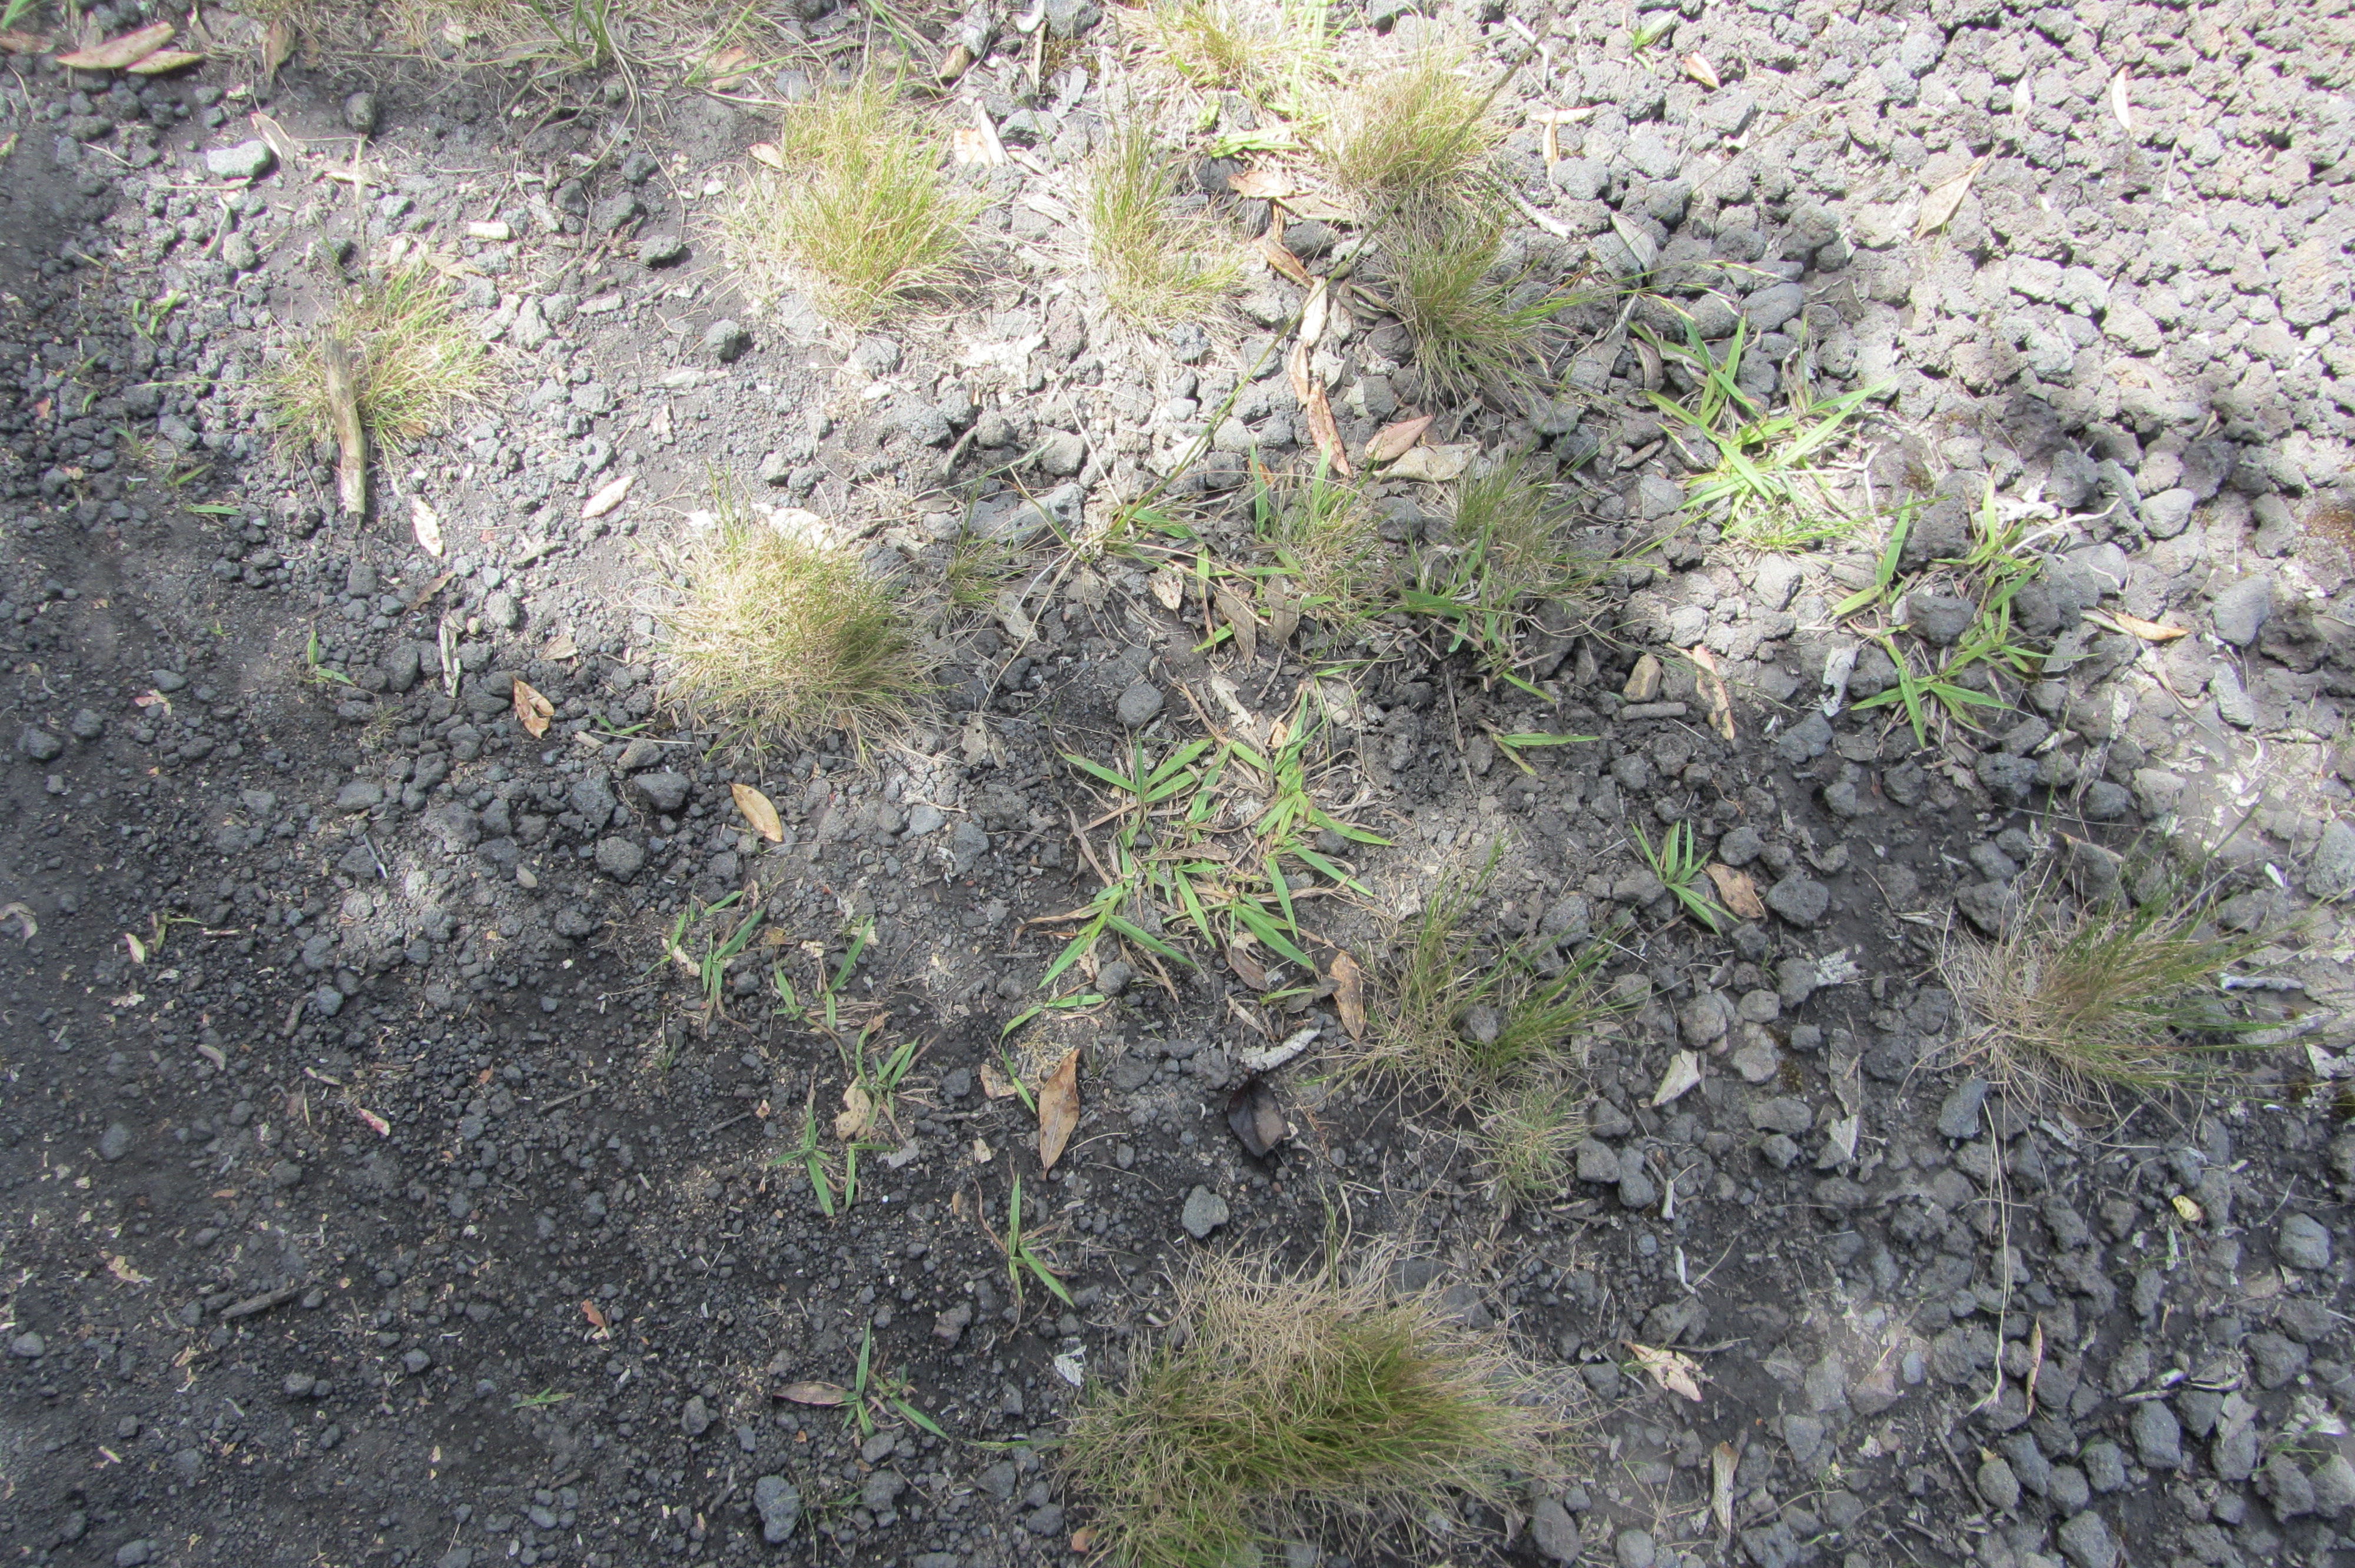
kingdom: Plantae
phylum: Tracheophyta
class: Liliopsida
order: Poales
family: Poaceae
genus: Paspalum
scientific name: Paspalum dilatatum
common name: Dallisgrass
